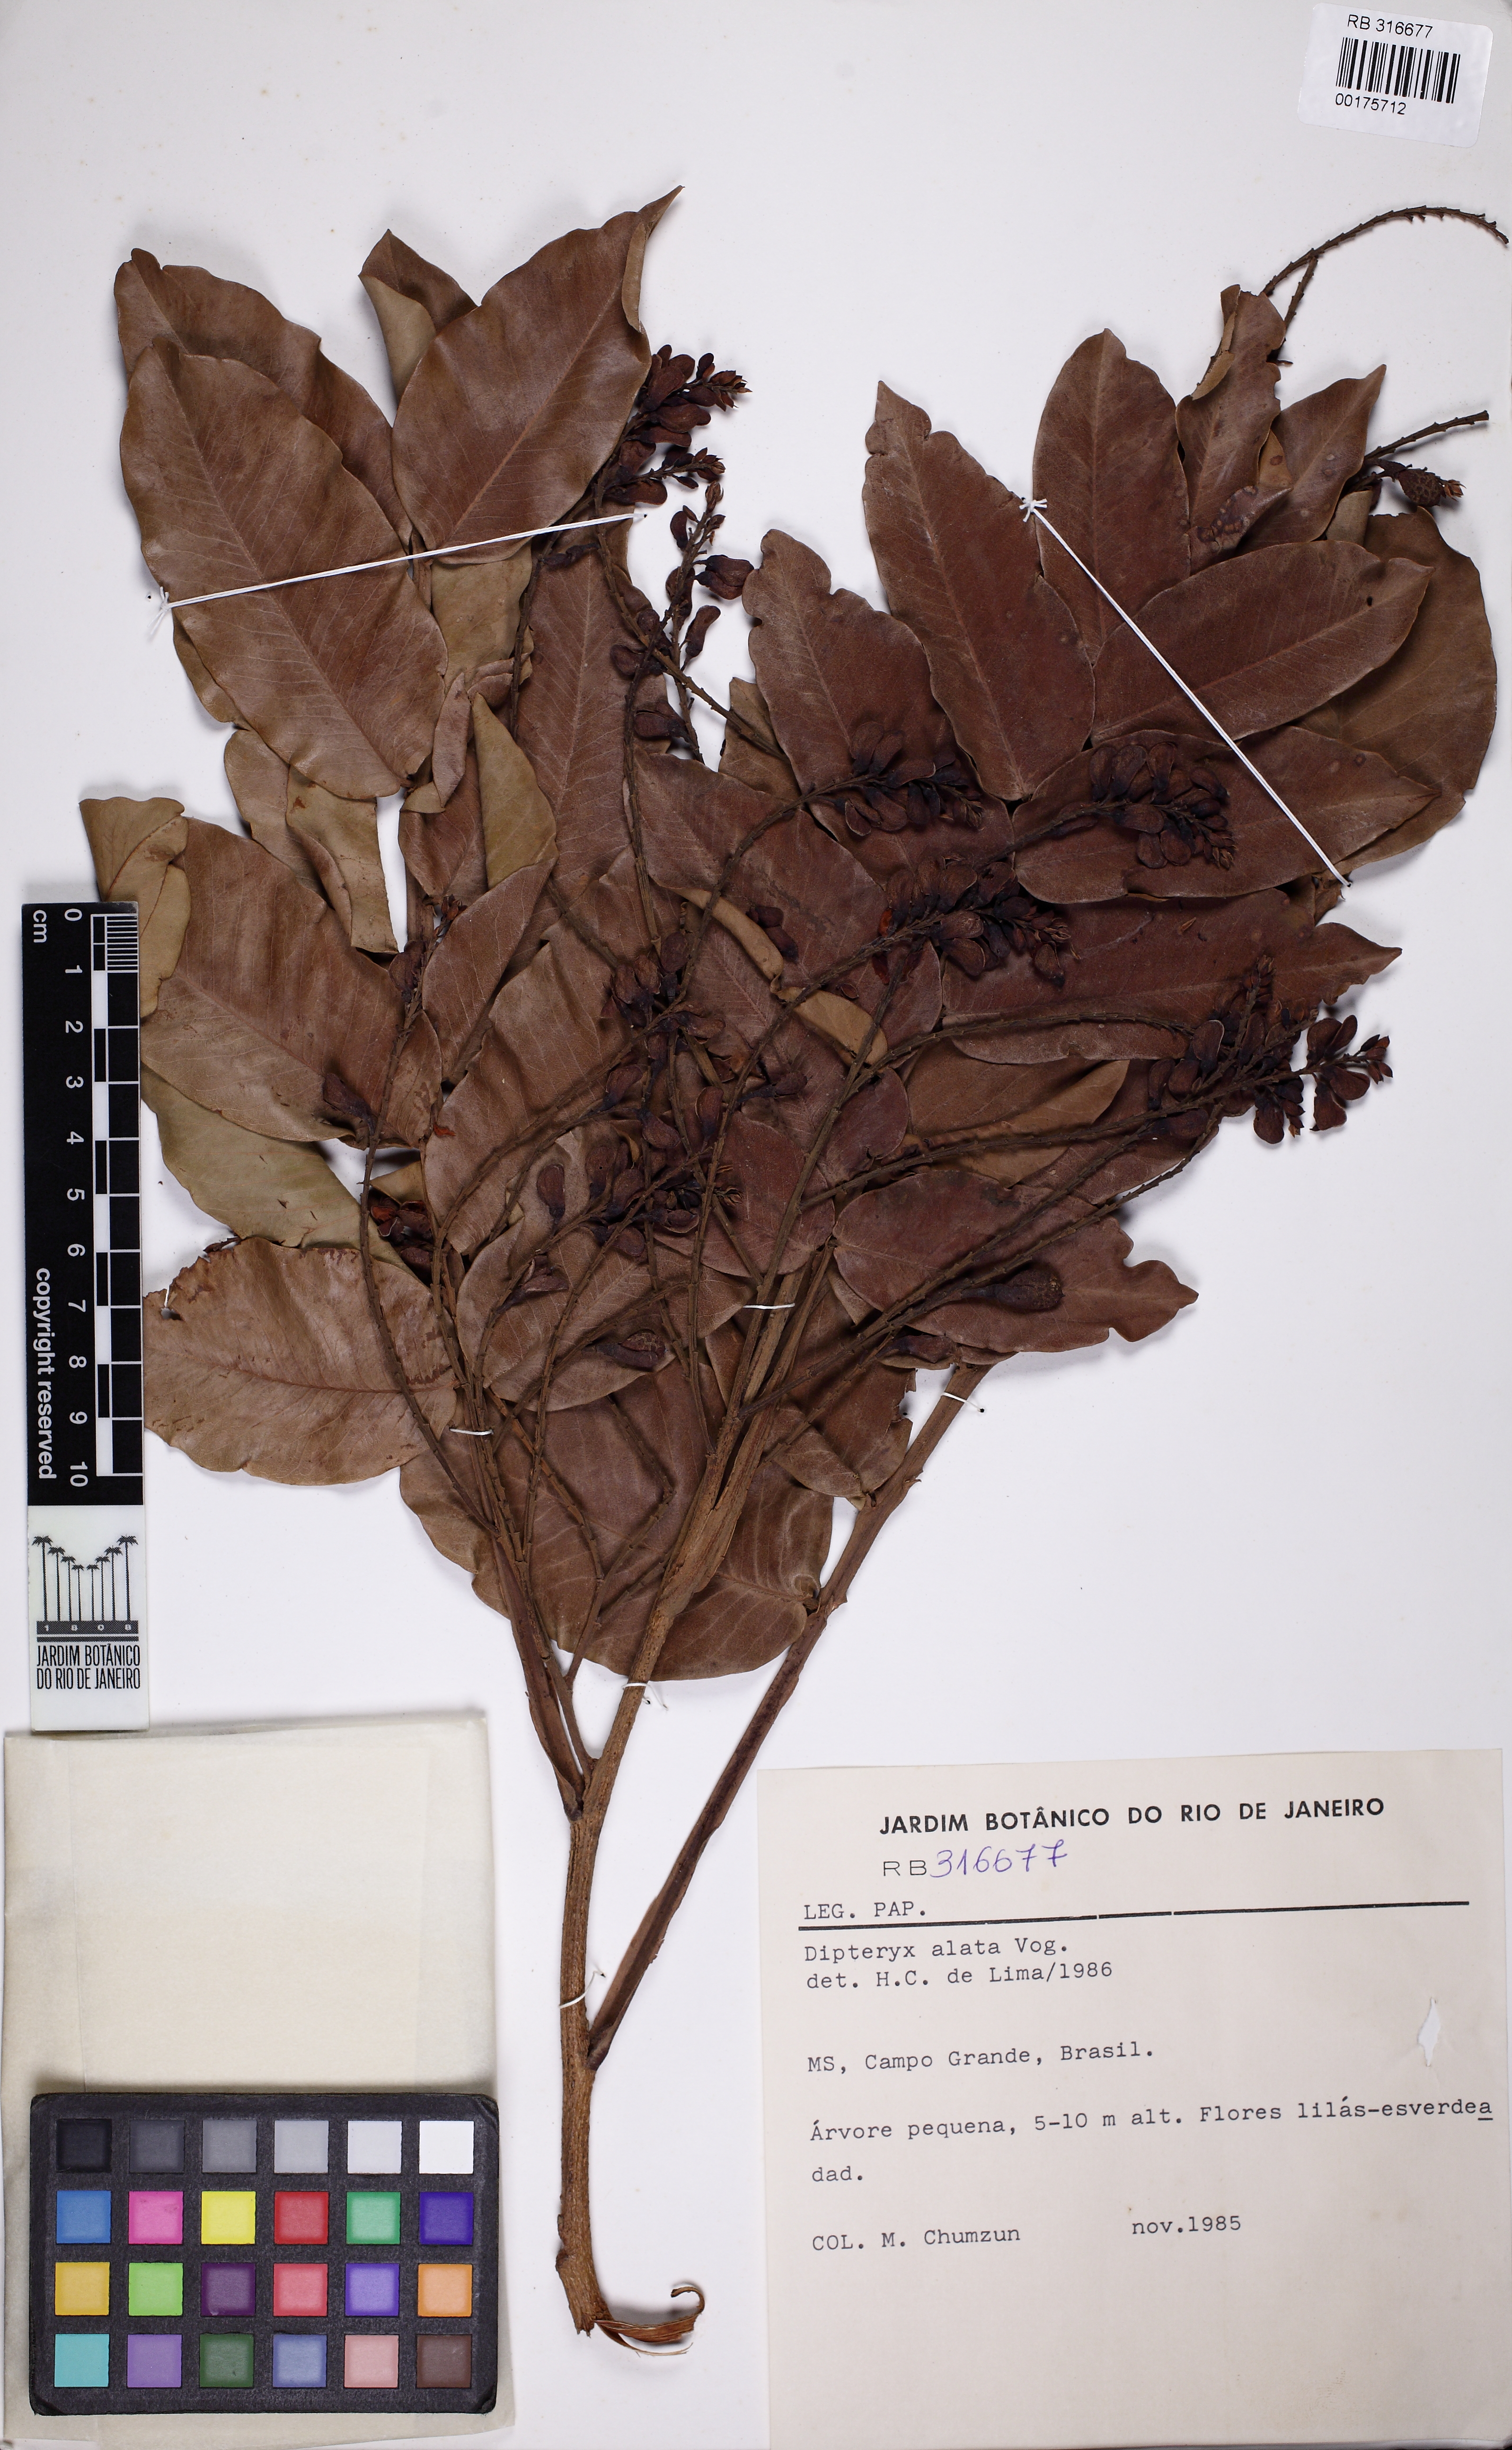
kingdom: Plantae
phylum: Tracheophyta
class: Magnoliopsida
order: Fabales
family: Fabaceae
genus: Dipteryx
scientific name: Dipteryx alata
